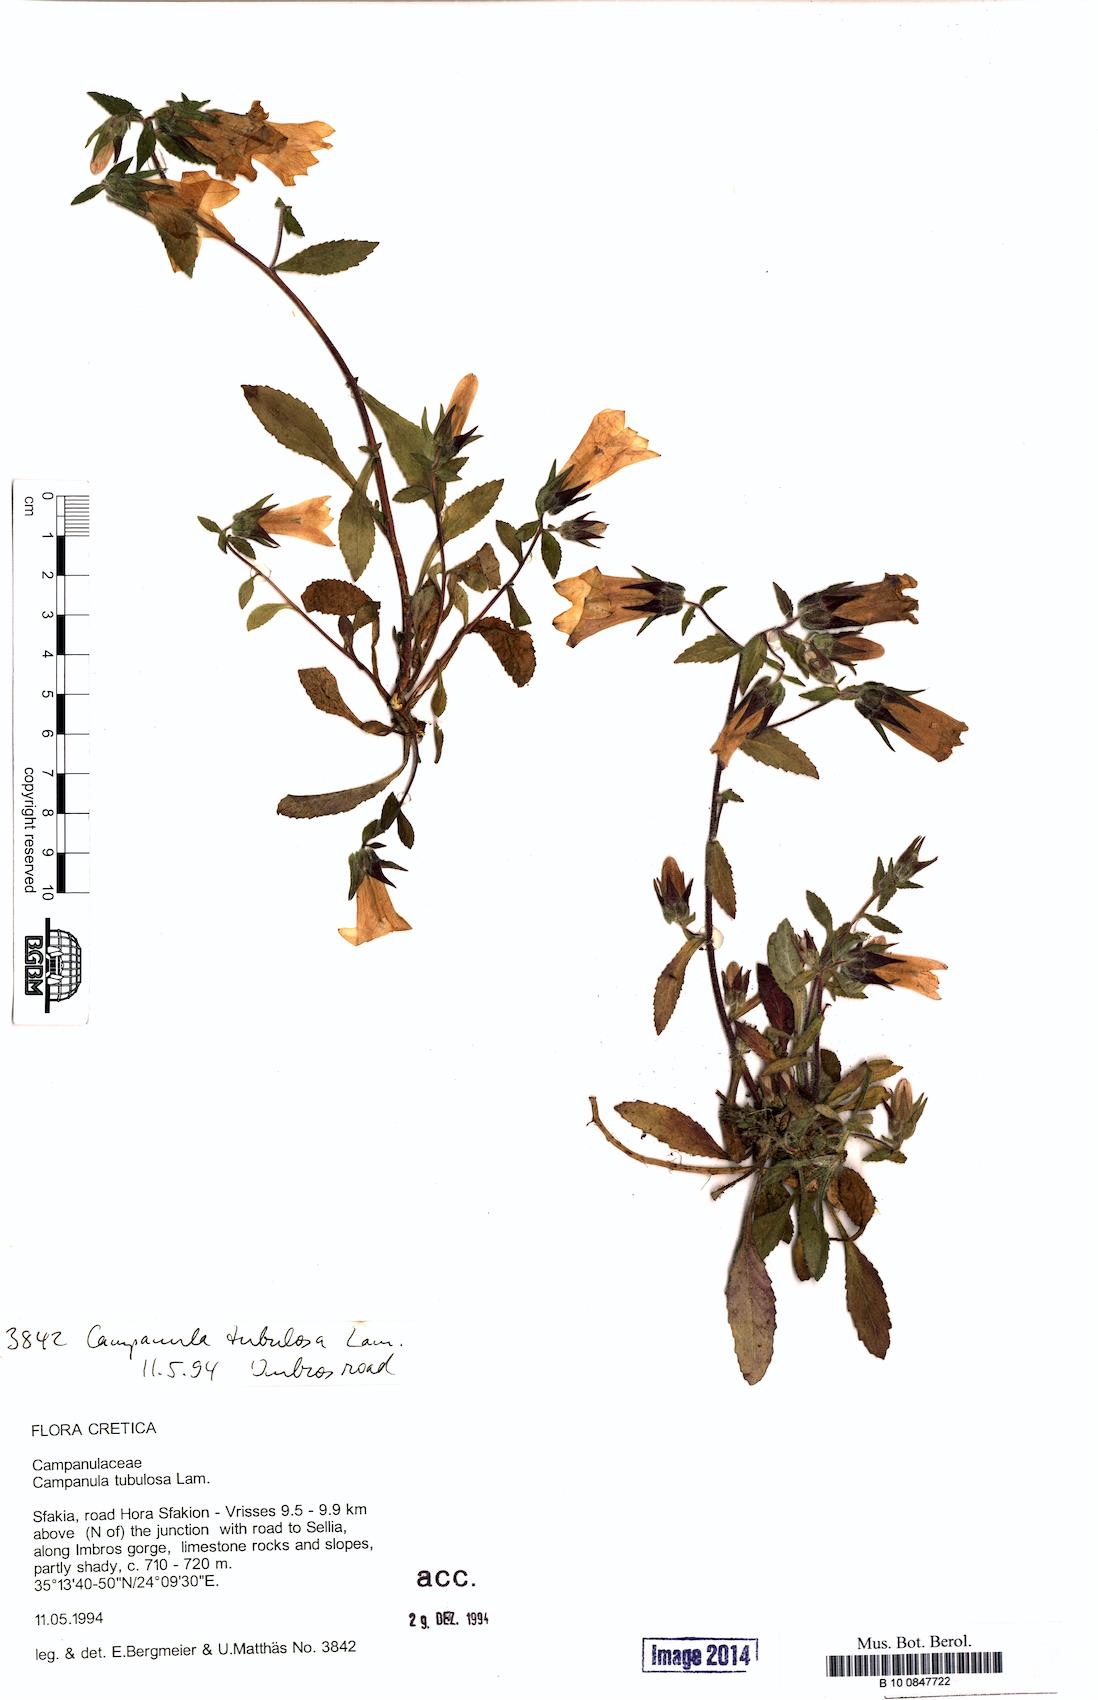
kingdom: Plantae
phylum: Tracheophyta
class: Magnoliopsida
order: Asterales
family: Campanulaceae
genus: Campanula
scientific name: Campanula tubulosa
